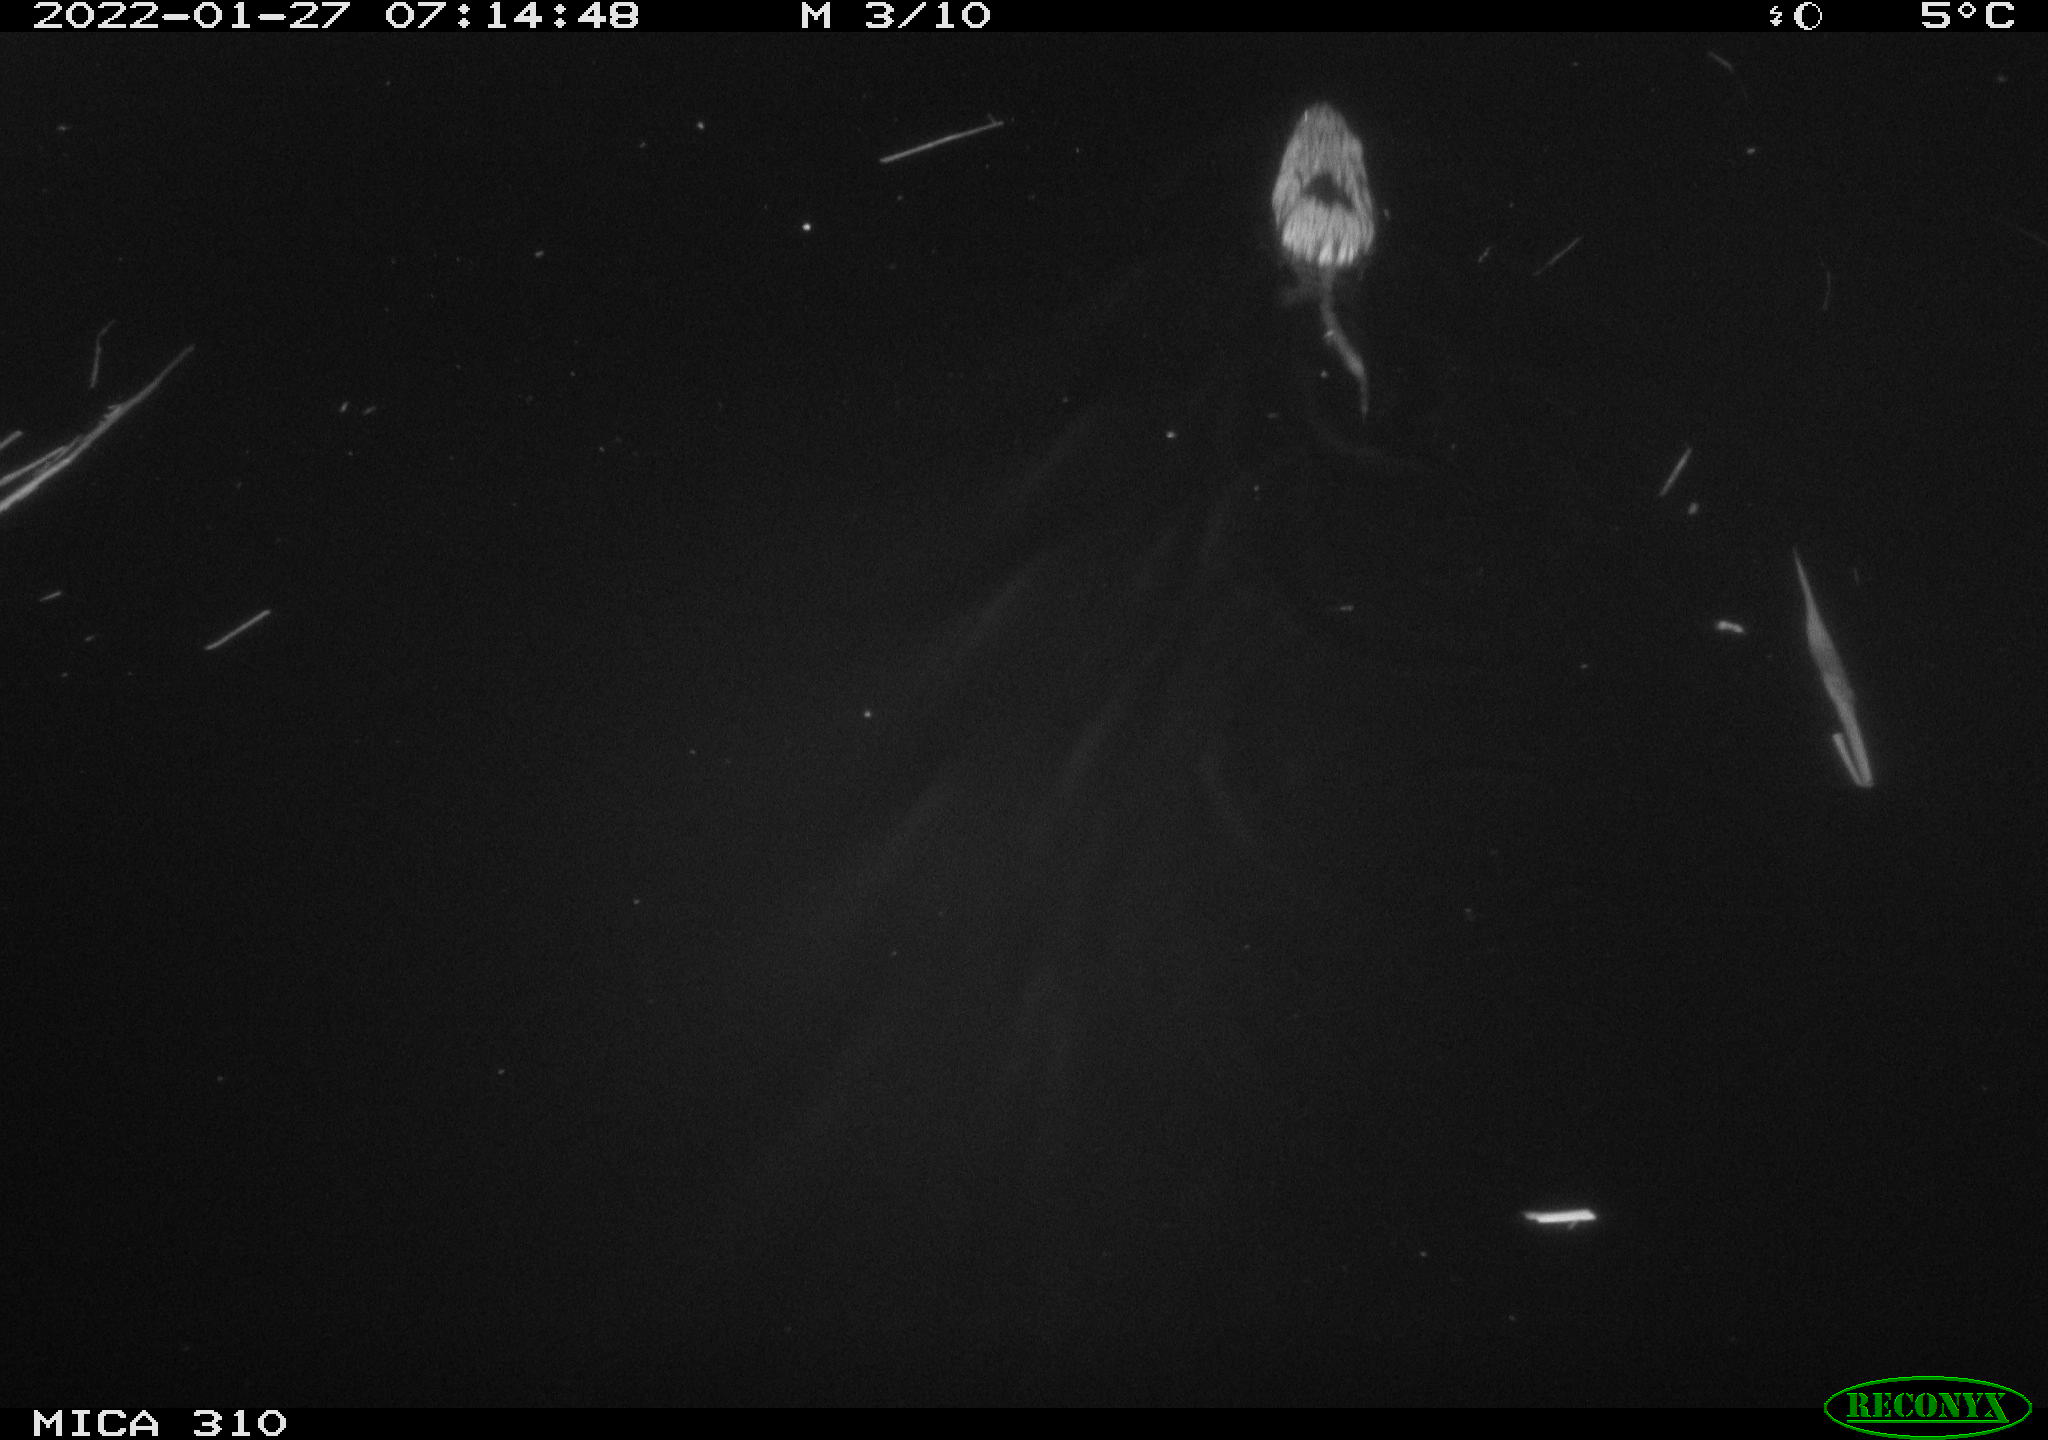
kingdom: Animalia
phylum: Chordata
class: Mammalia
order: Rodentia
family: Cricetidae
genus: Ondatra
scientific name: Ondatra zibethicus
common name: Muskrat
